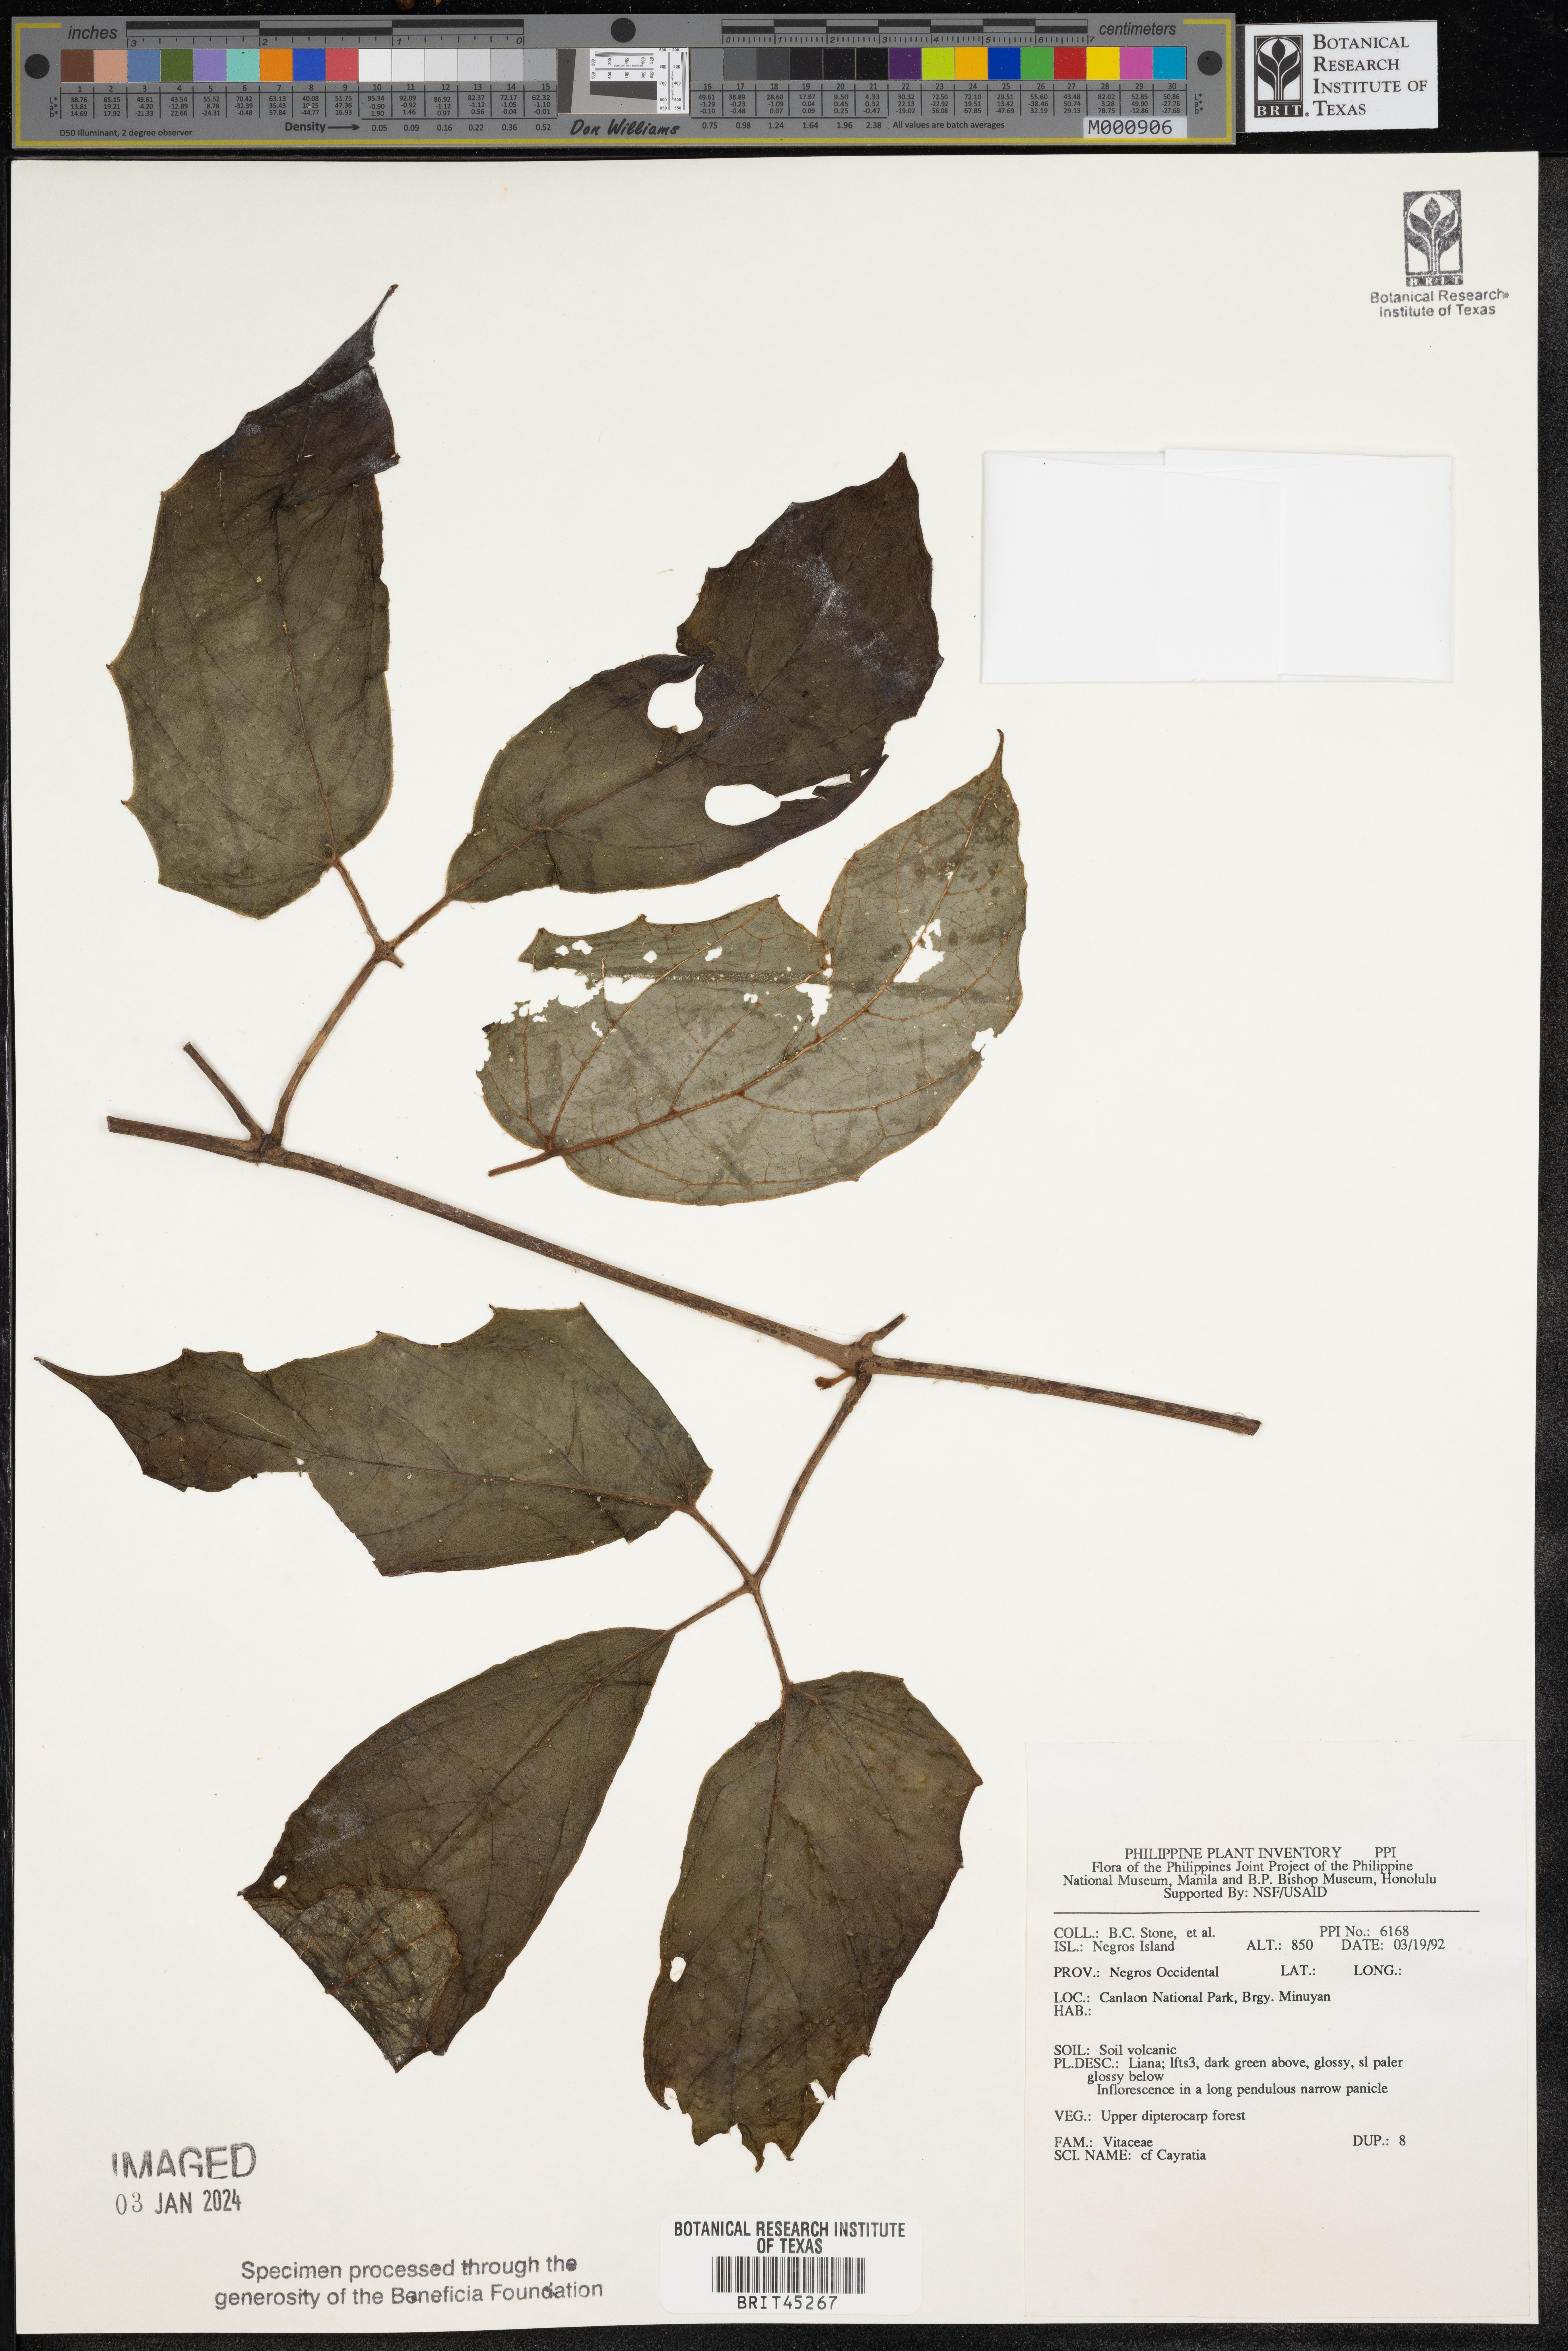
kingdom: Plantae
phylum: Tracheophyta
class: Magnoliopsida
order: Vitales
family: Vitaceae
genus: Cayratia
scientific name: Cayratia
